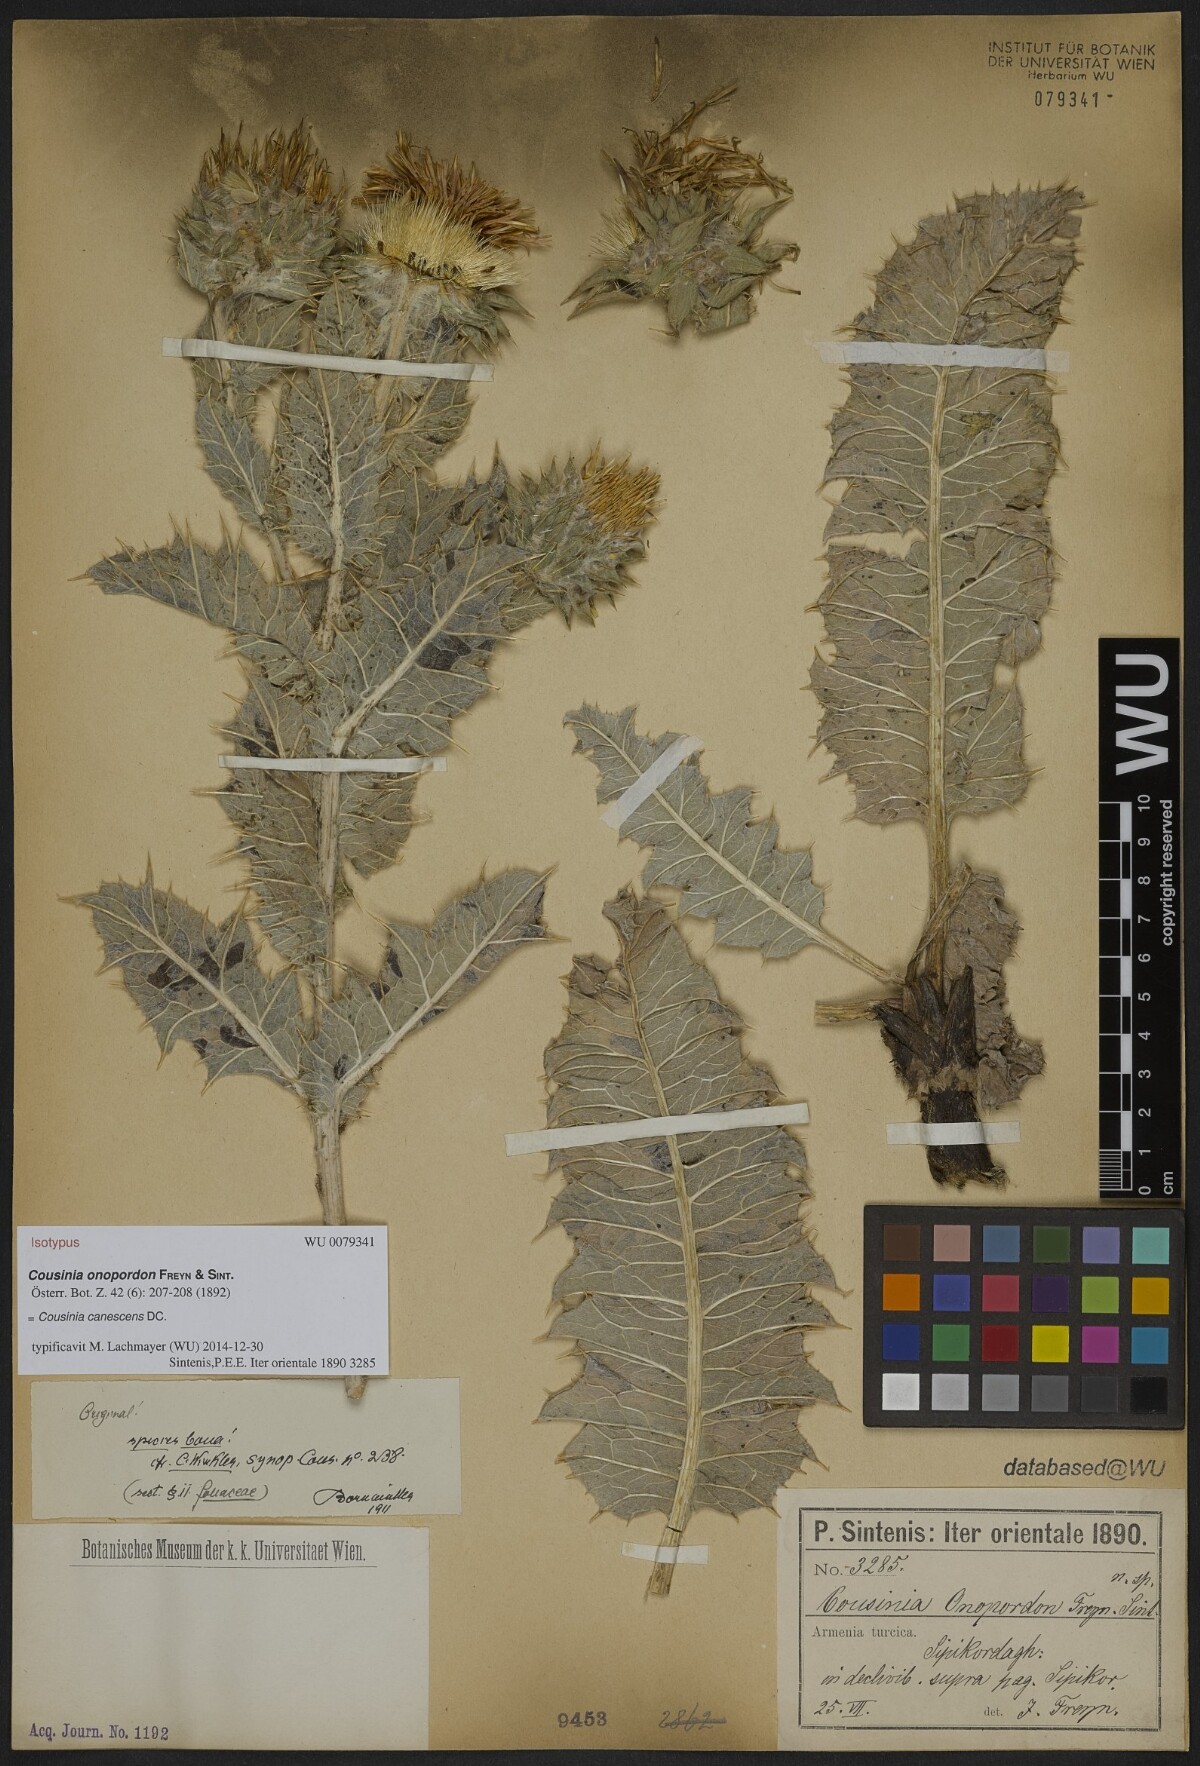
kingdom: Plantae
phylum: Tracheophyta
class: Magnoliopsida
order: Asterales
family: Asteraceae
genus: Cousinia
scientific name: Cousinia onopordon
